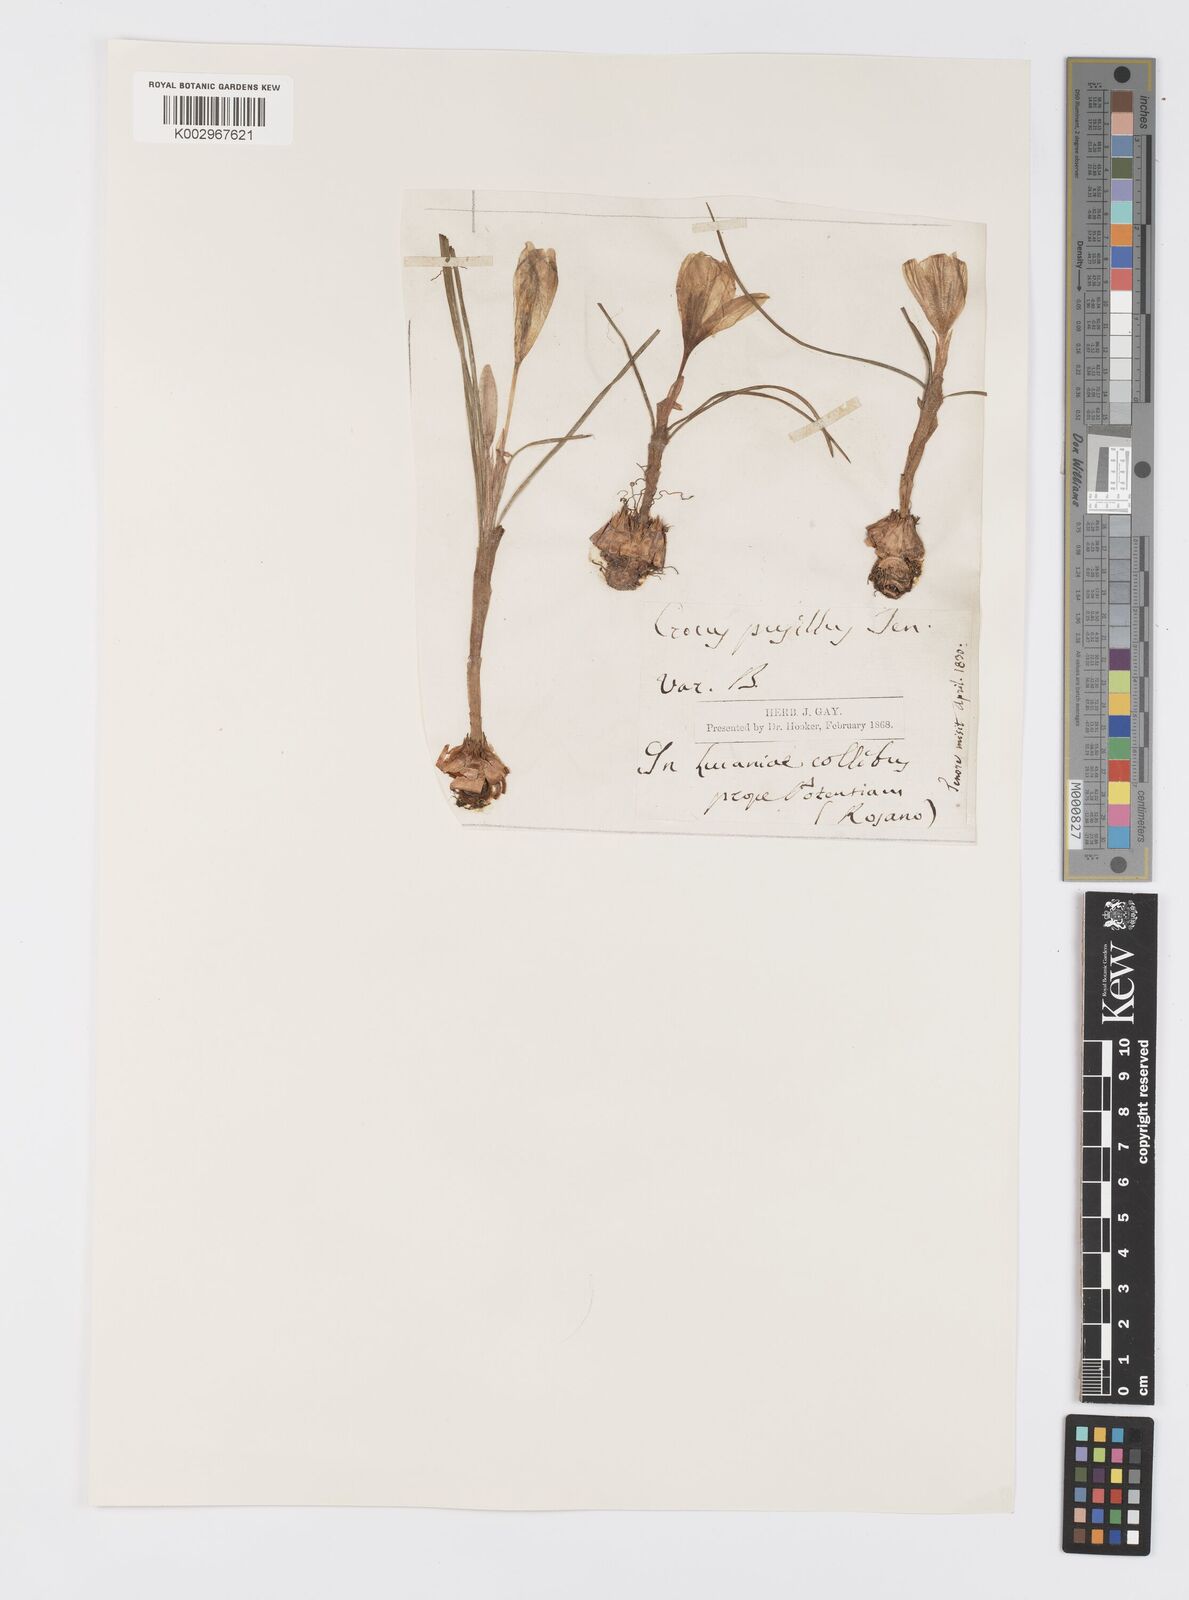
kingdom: Plantae
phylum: Tracheophyta
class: Liliopsida
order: Asparagales
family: Iridaceae
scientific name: Iridaceae
